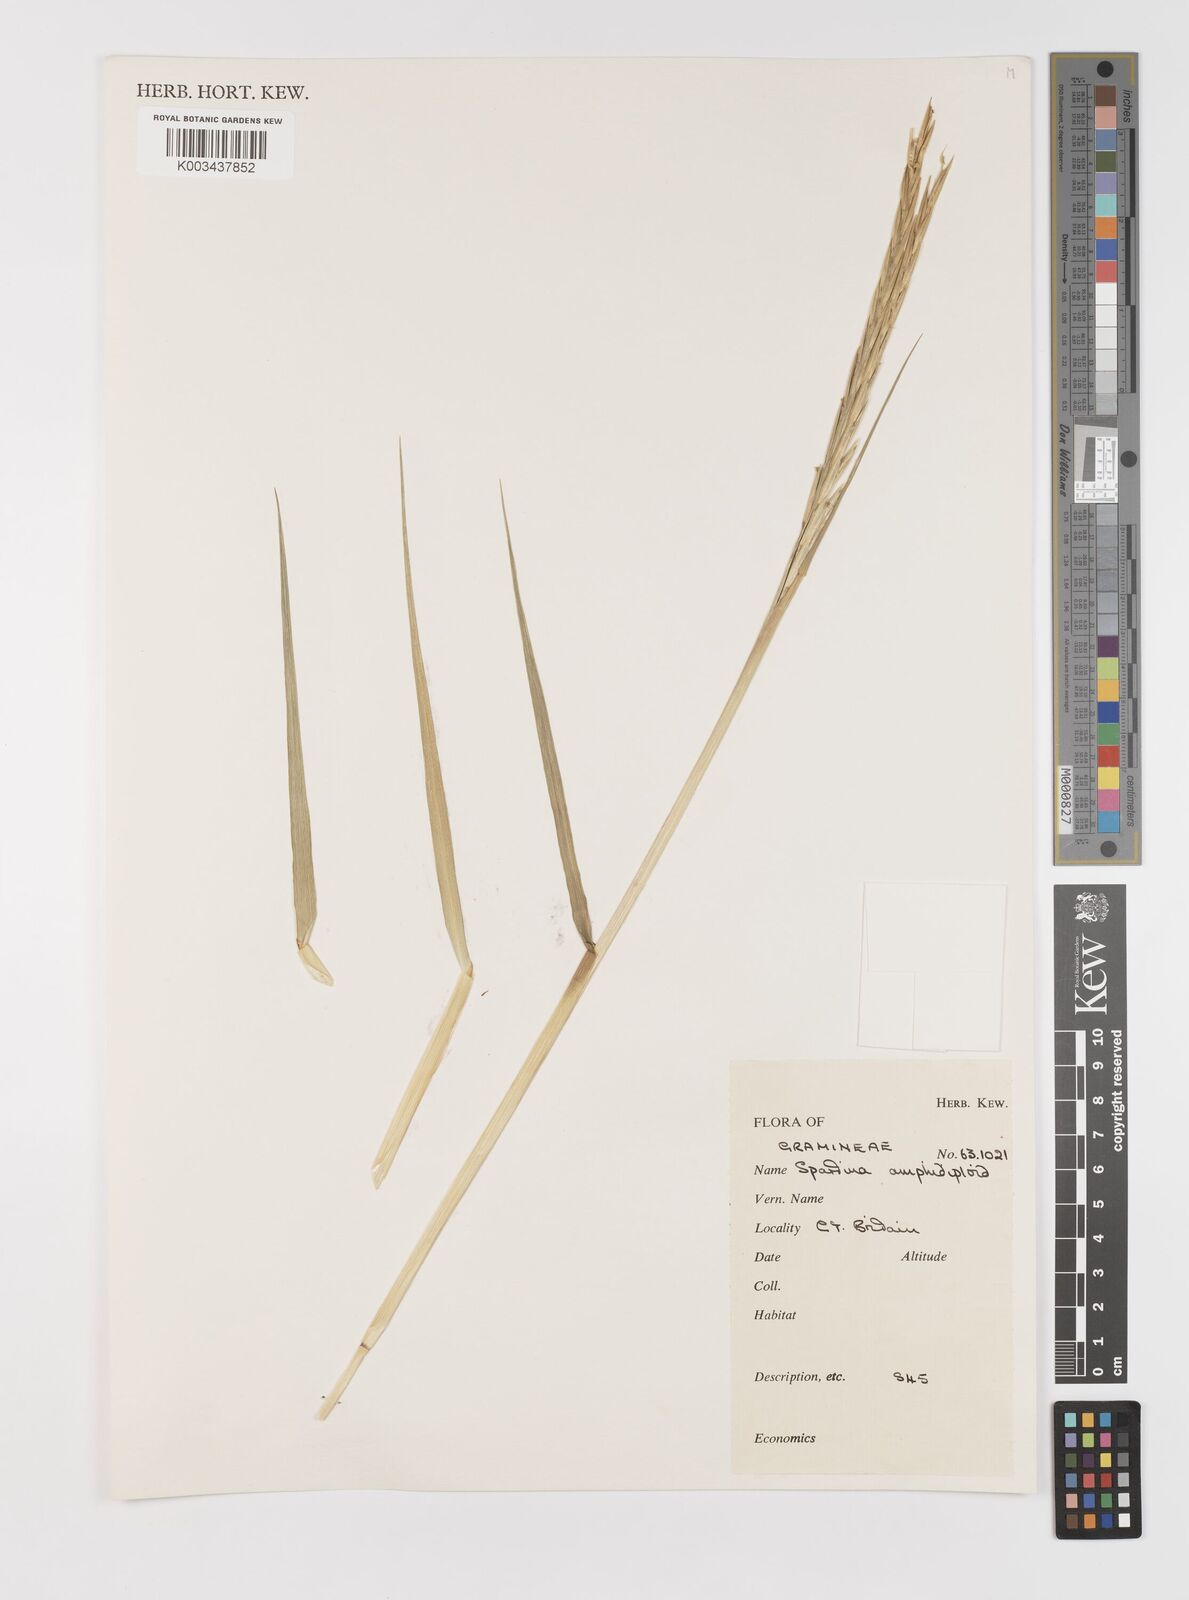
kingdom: Animalia
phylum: Mollusca
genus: Spartina
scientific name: Spartina
